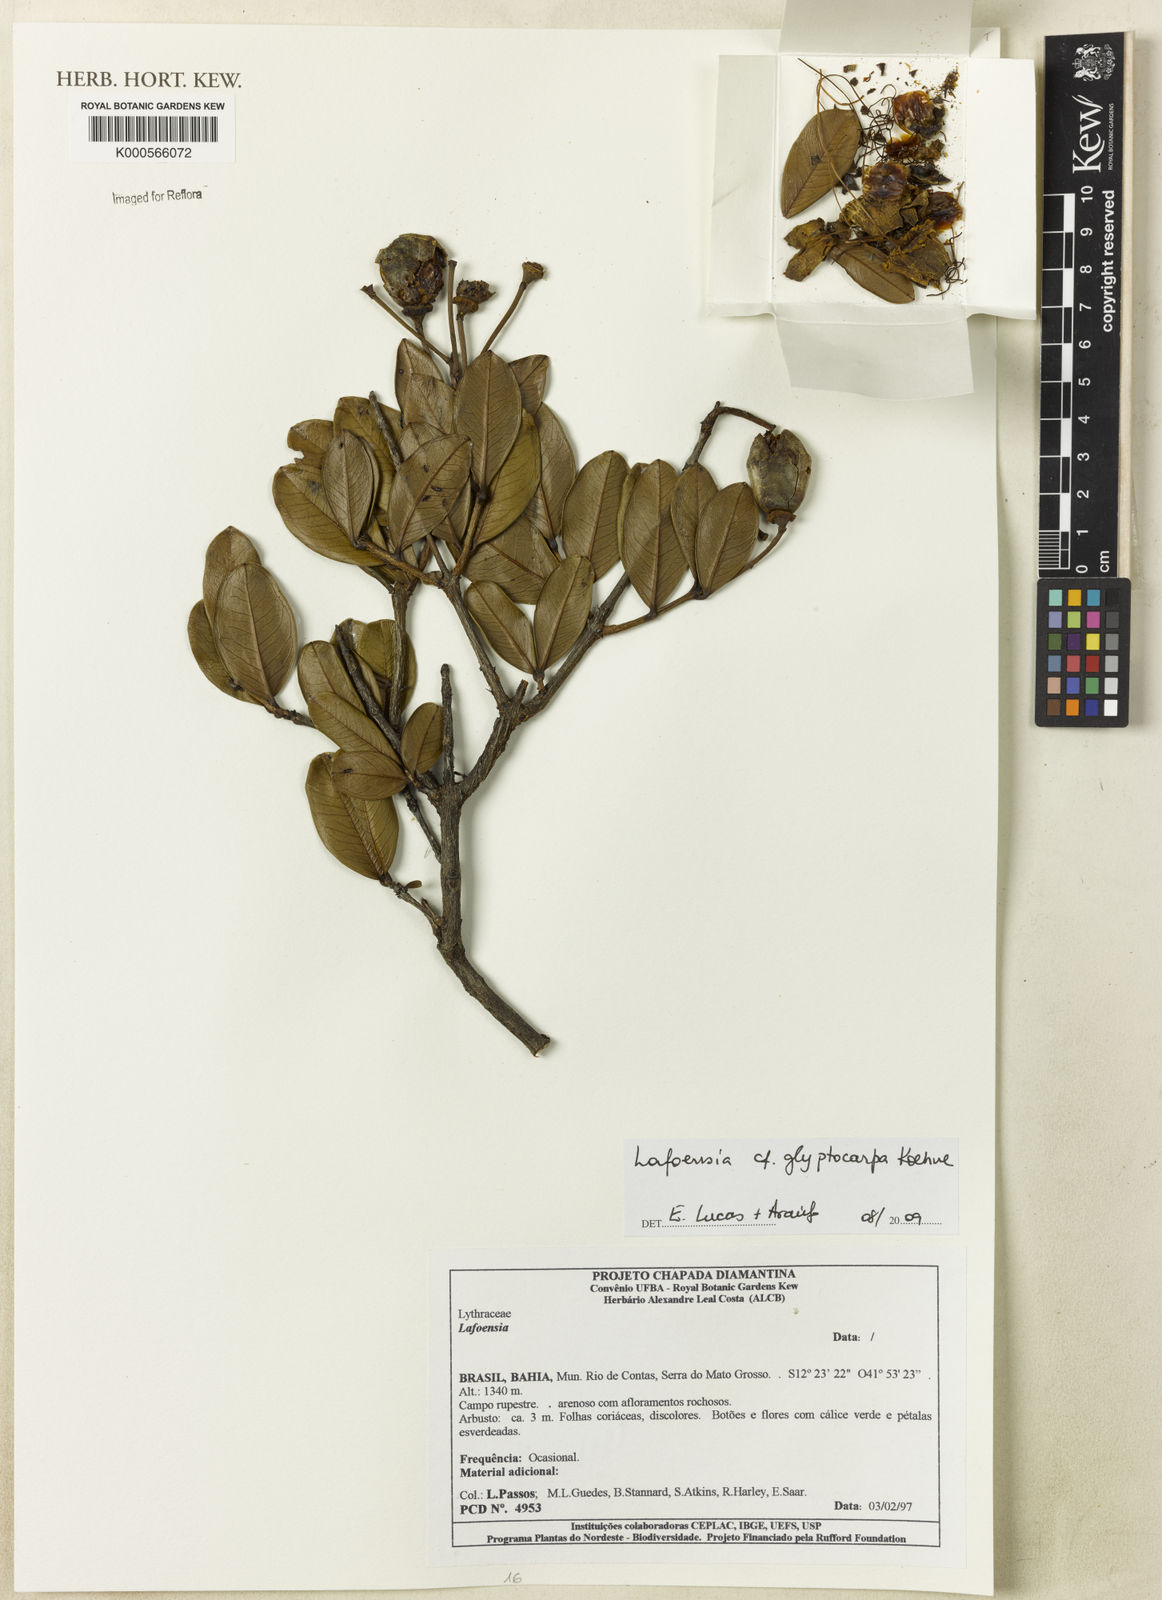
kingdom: Plantae
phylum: Tracheophyta
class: Magnoliopsida
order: Myrtales
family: Lythraceae
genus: Lafoensia
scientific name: Lafoensia glyptocarpa
